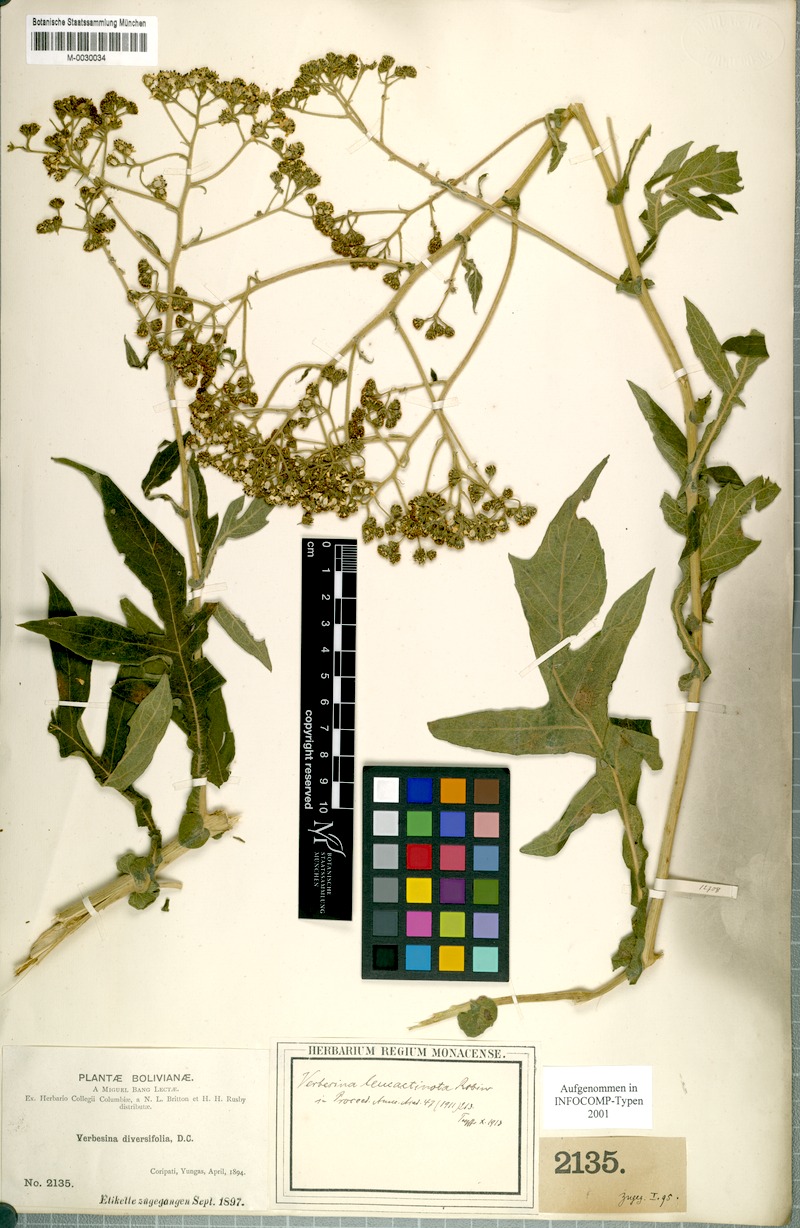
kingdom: Plantae
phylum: Tracheophyta
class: Magnoliopsida
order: Asterales
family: Asteraceae
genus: Verbesina
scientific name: Verbesina leucactinota
